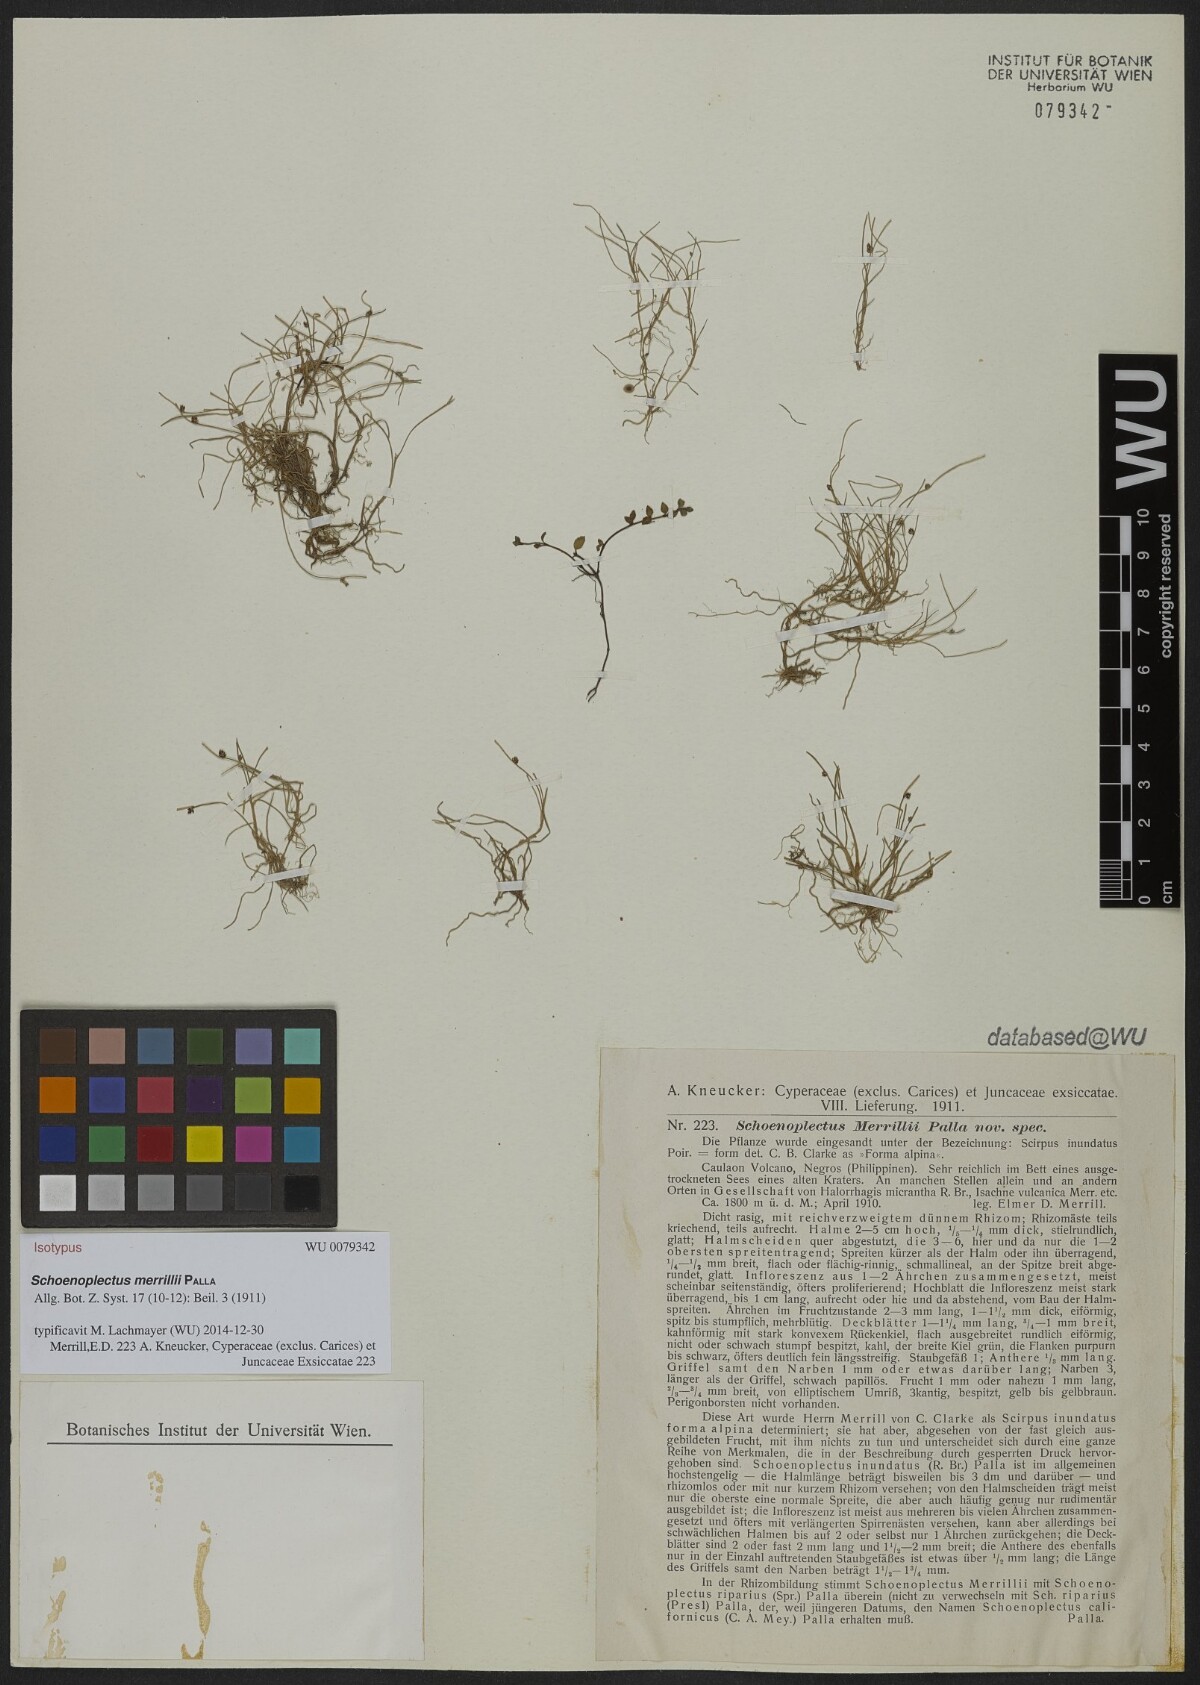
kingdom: Plantae
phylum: Tracheophyta
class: Liliopsida
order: Poales
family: Cyperaceae
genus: Isolepis
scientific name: Isolepis subtilissima
